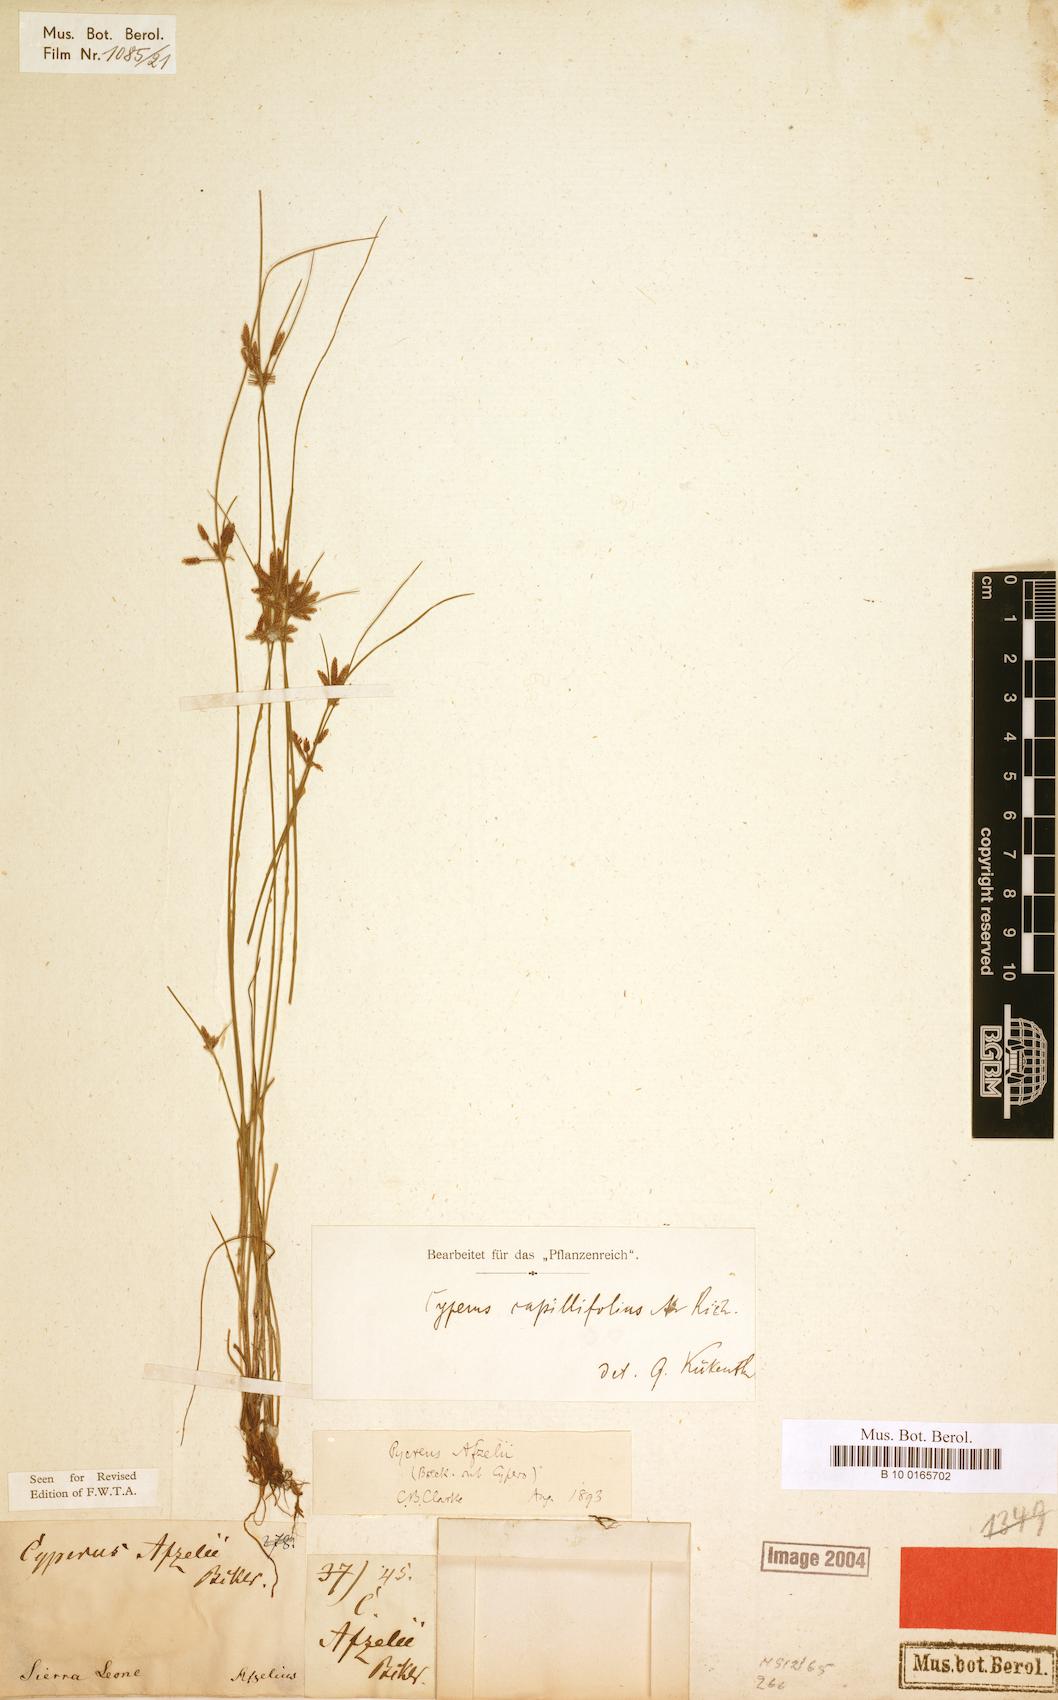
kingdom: Plantae
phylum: Tracheophyta
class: Liliopsida
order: Poales
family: Cyperaceae
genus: Cyperus
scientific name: Cyperus capillifolius
